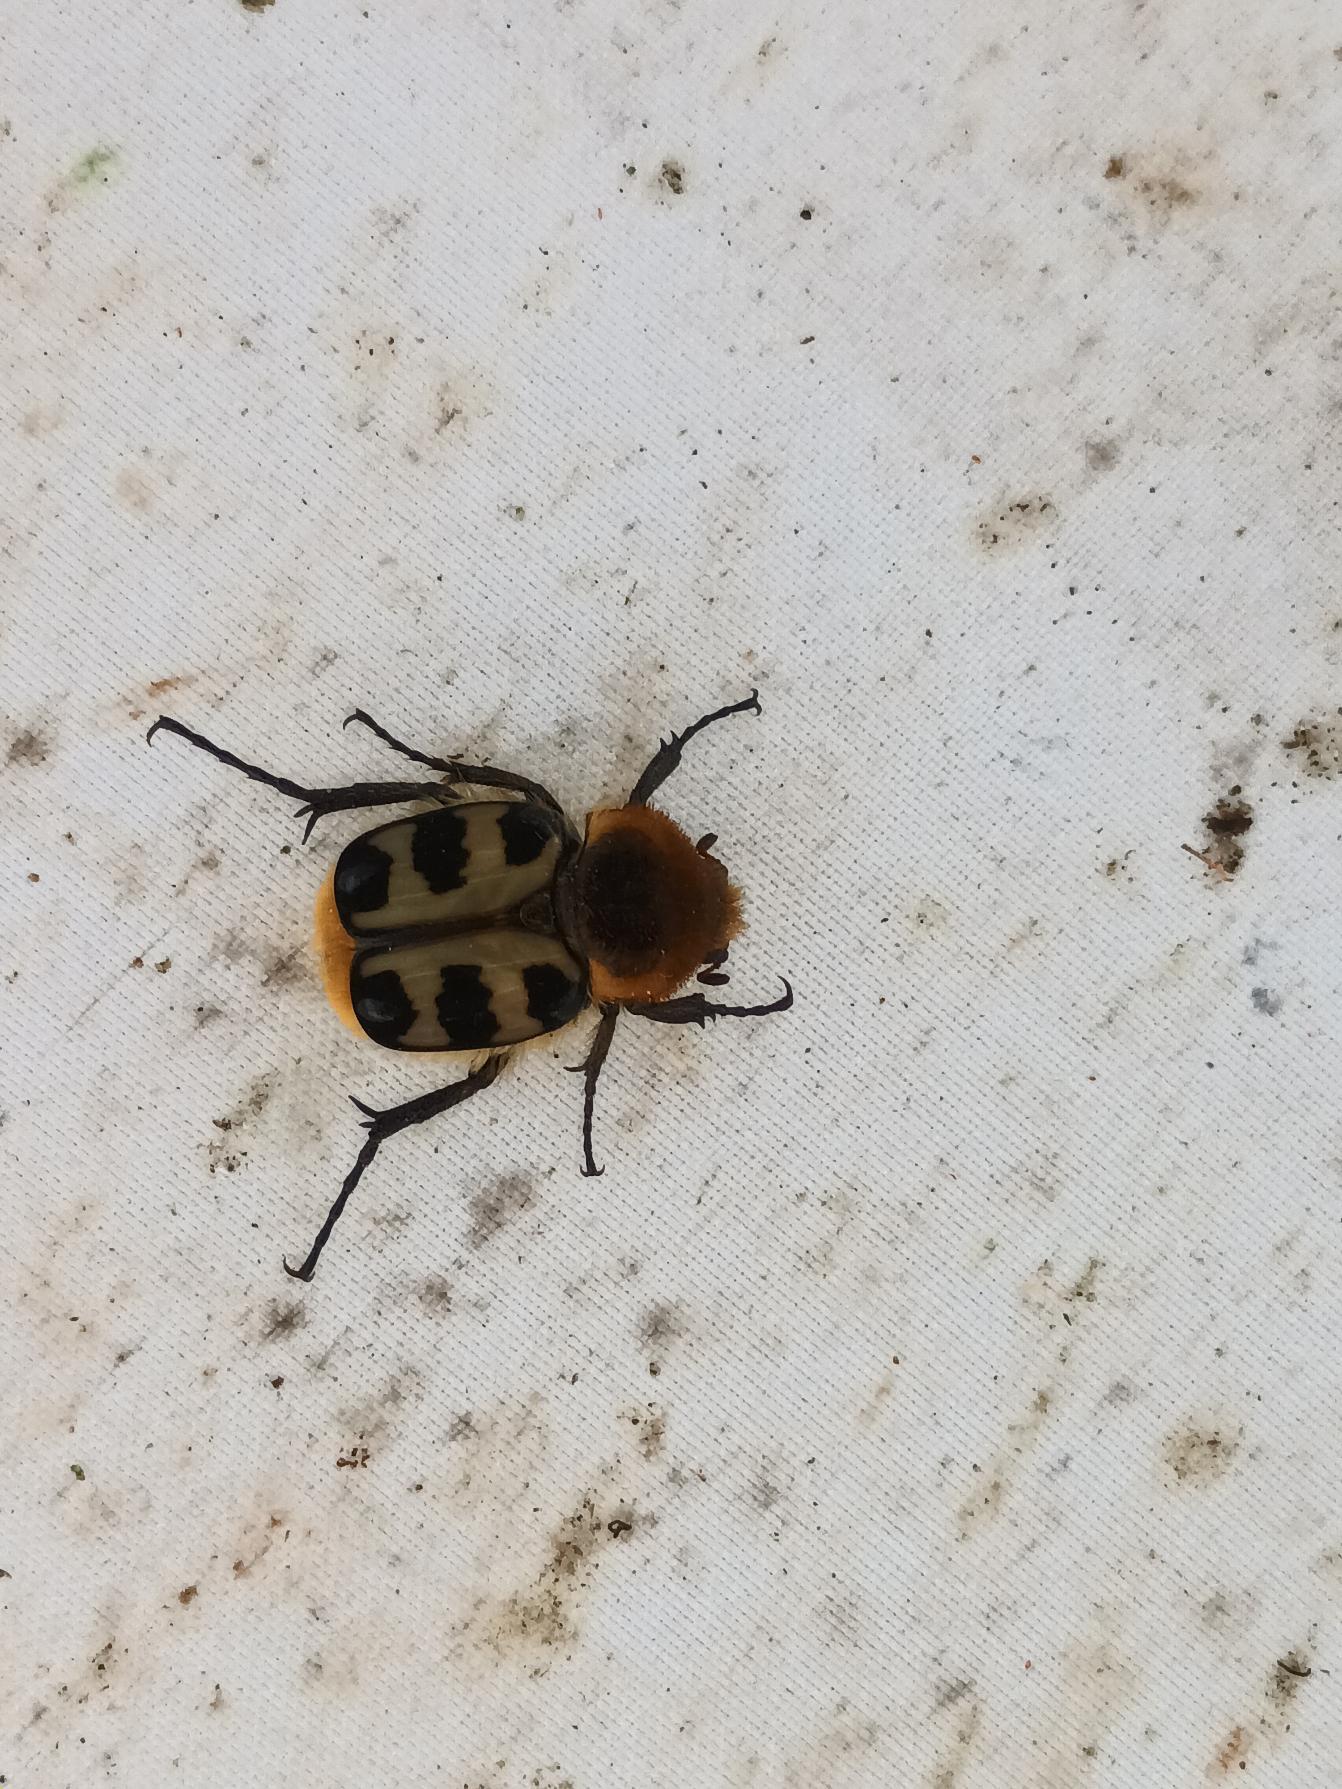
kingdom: Animalia
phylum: Arthropoda
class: Insecta
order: Coleoptera
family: Scarabaeidae
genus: Trichius
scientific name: Trichius gallicus
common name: Lille humlebille
